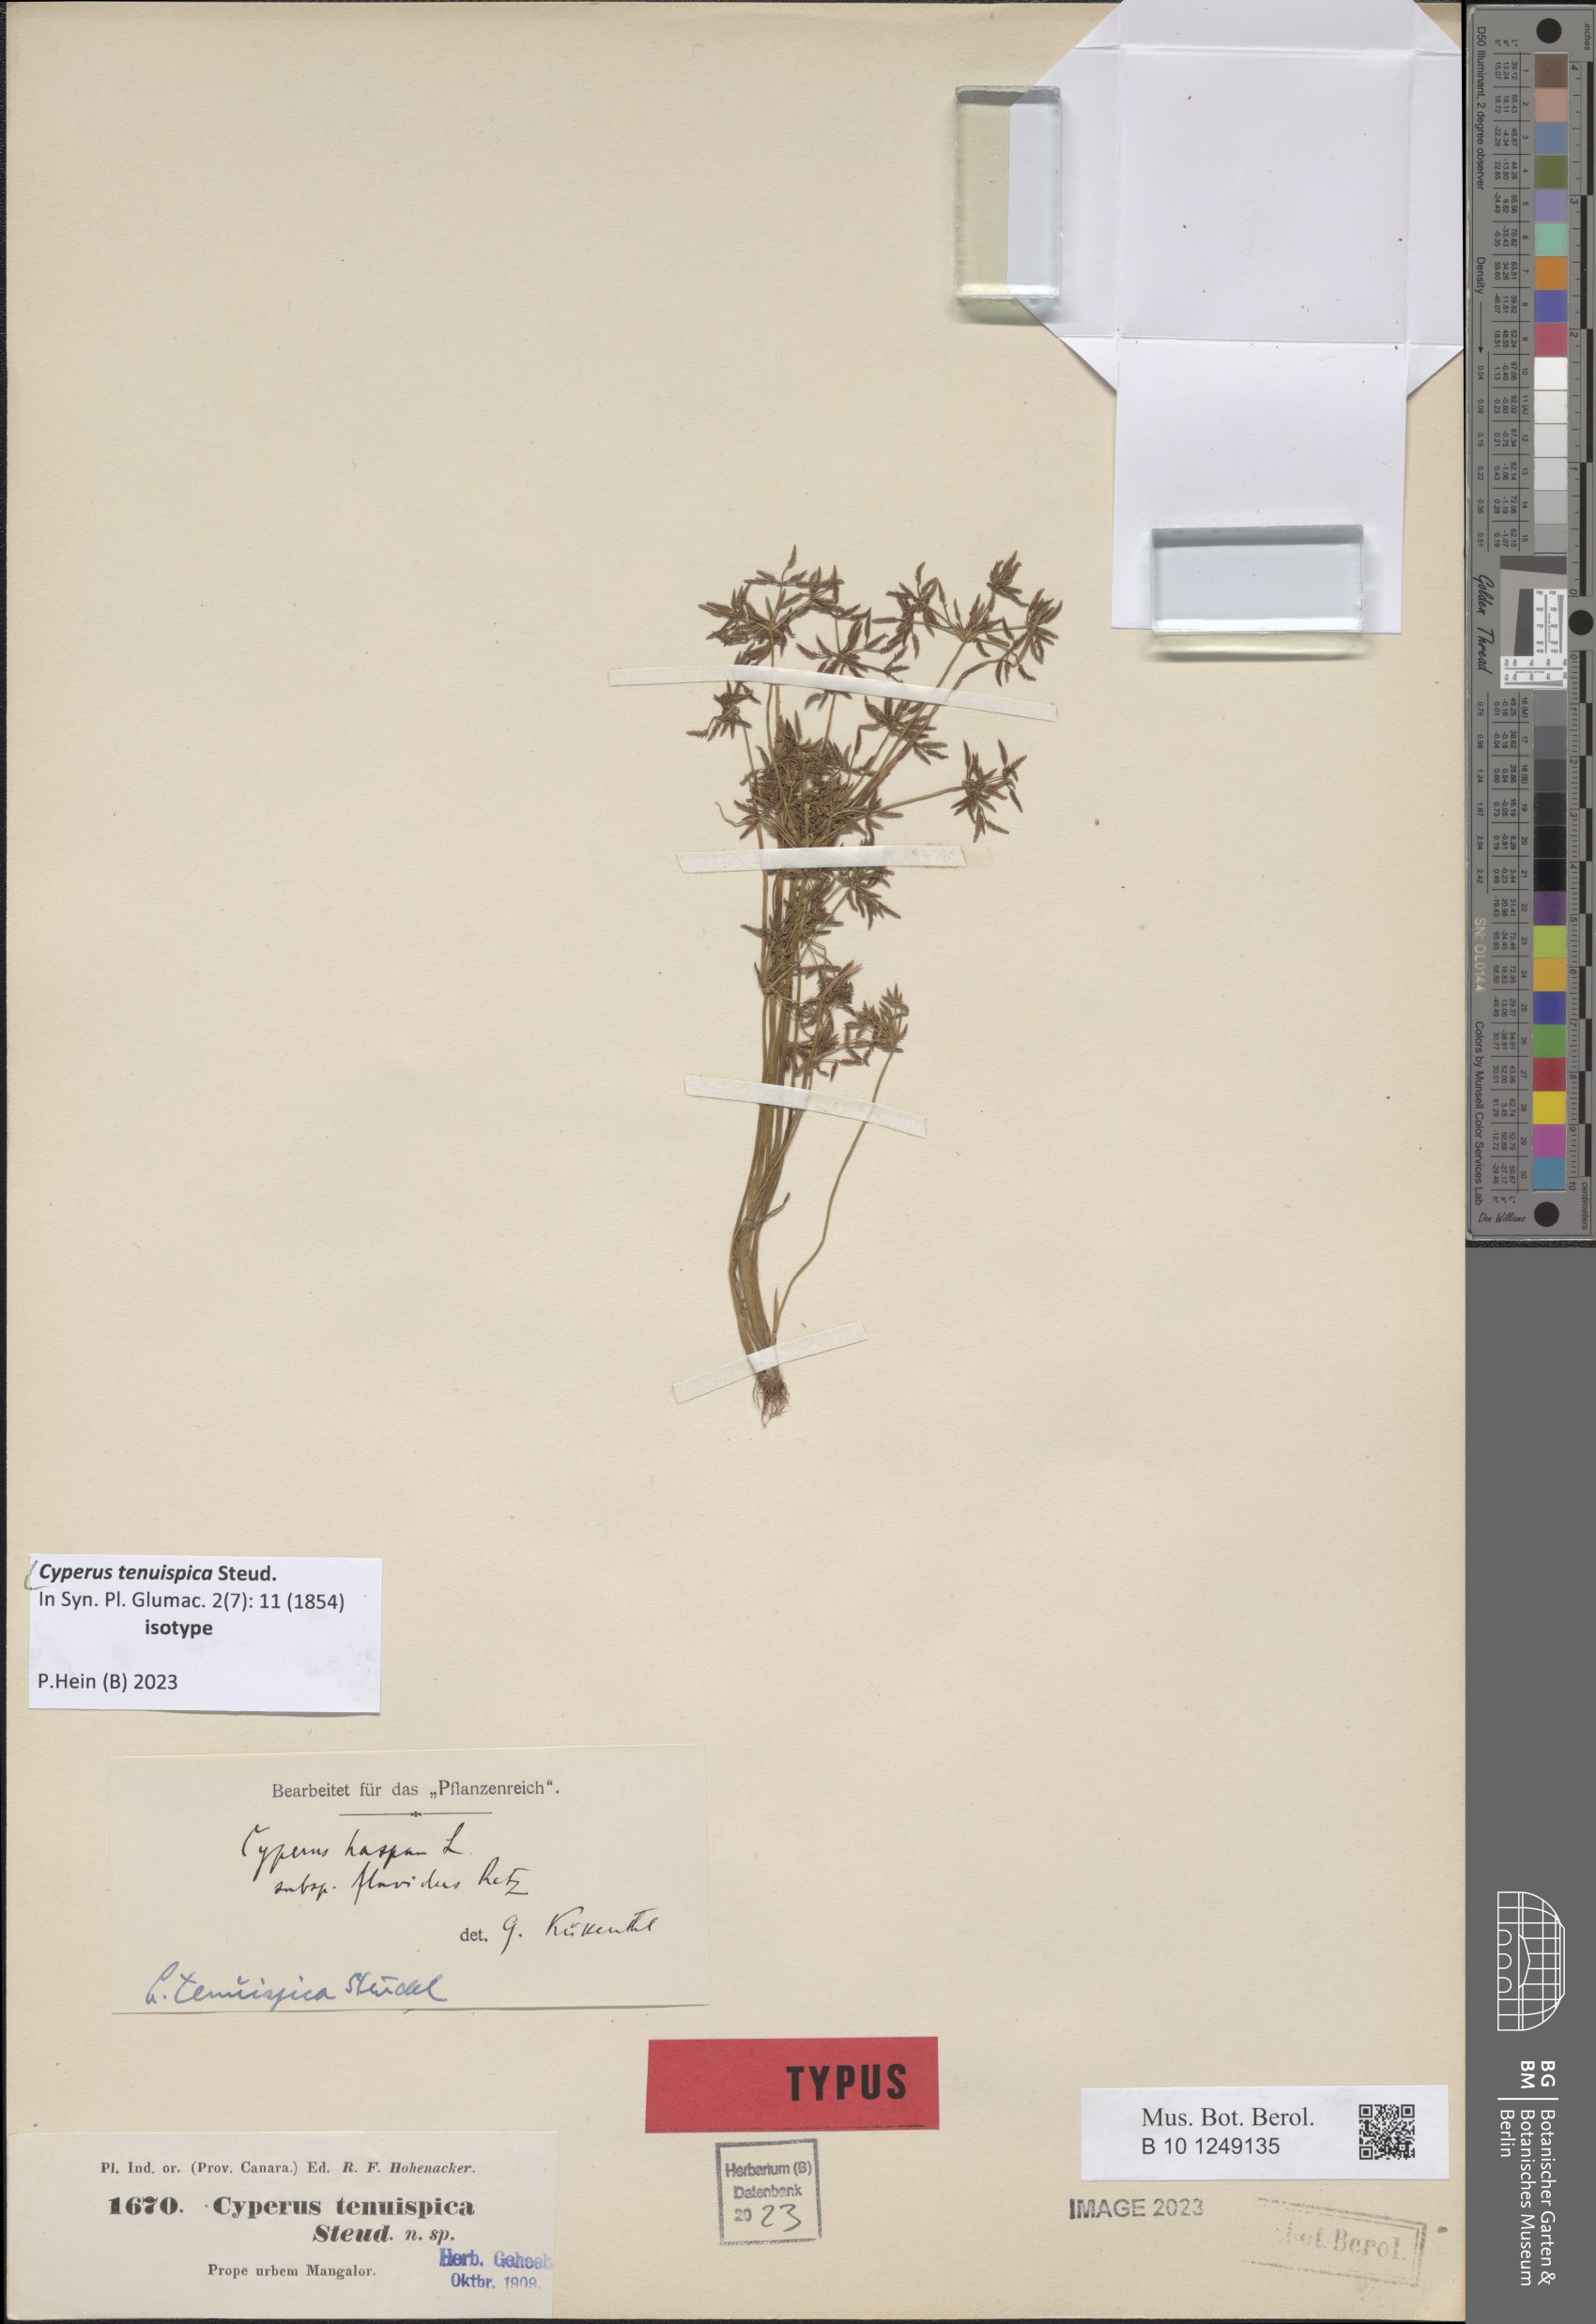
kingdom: Plantae
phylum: Tracheophyta
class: Liliopsida
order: Poales
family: Cyperaceae
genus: Cyperus
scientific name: Cyperus tenuispica
